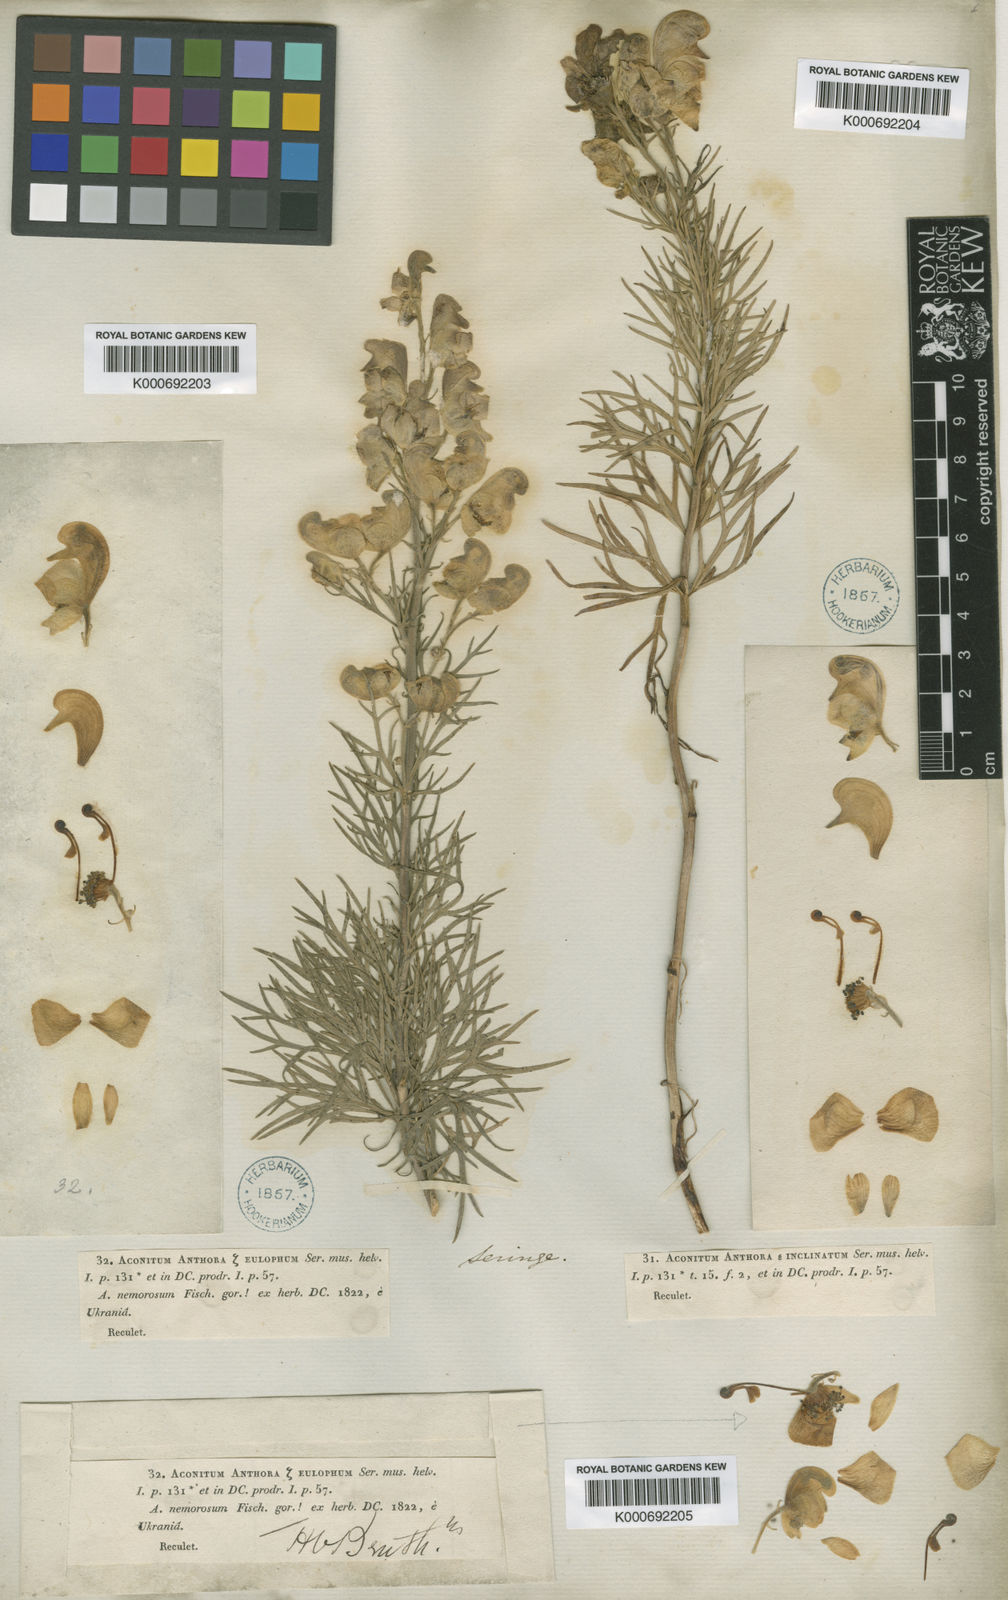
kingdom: Plantae
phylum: Tracheophyta
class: Magnoliopsida
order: Ranunculales
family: Ranunculaceae
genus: Aconitum
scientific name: Aconitum anthora
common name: Yellow monkshood
